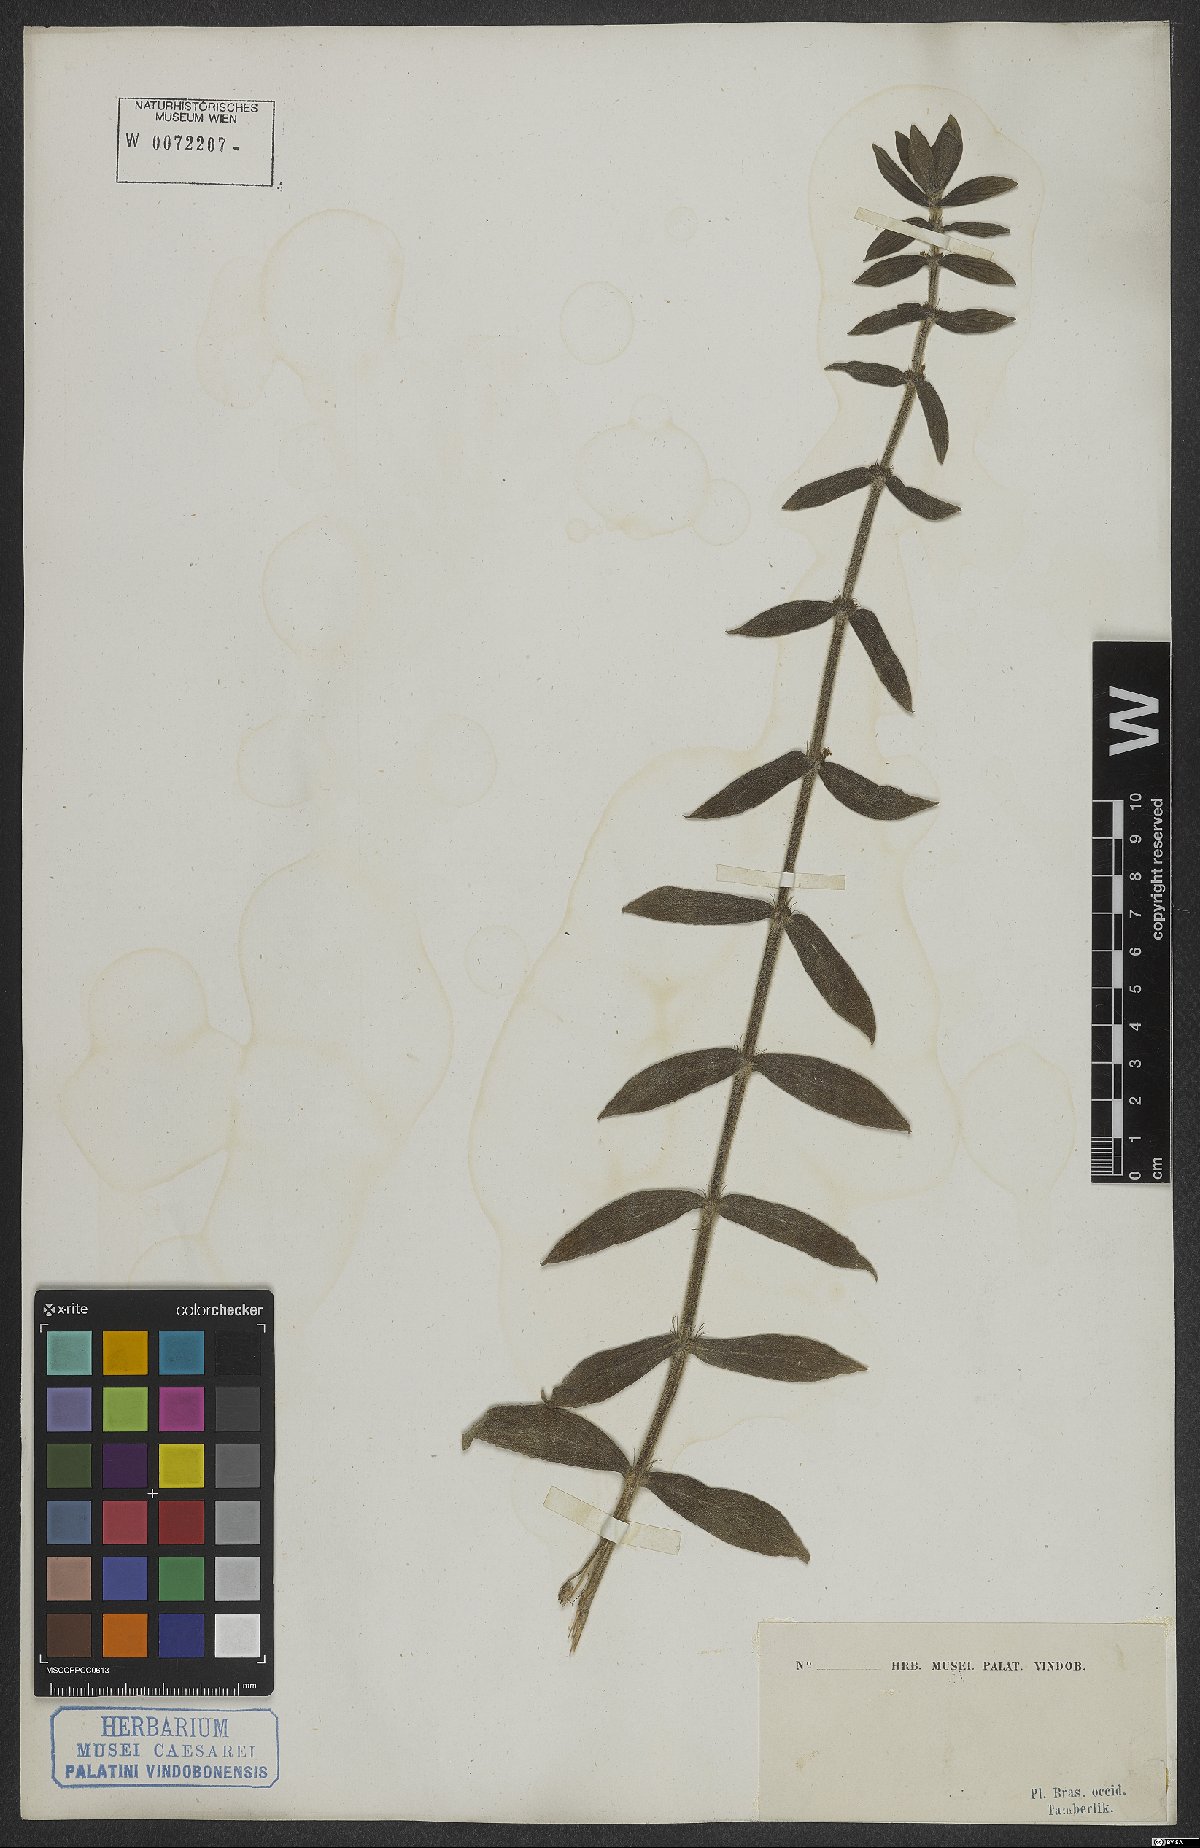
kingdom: Plantae
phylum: Tracheophyta
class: Magnoliopsida
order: Gentianales
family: Rubiaceae
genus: Spermacoce
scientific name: Spermacoce multiflora
